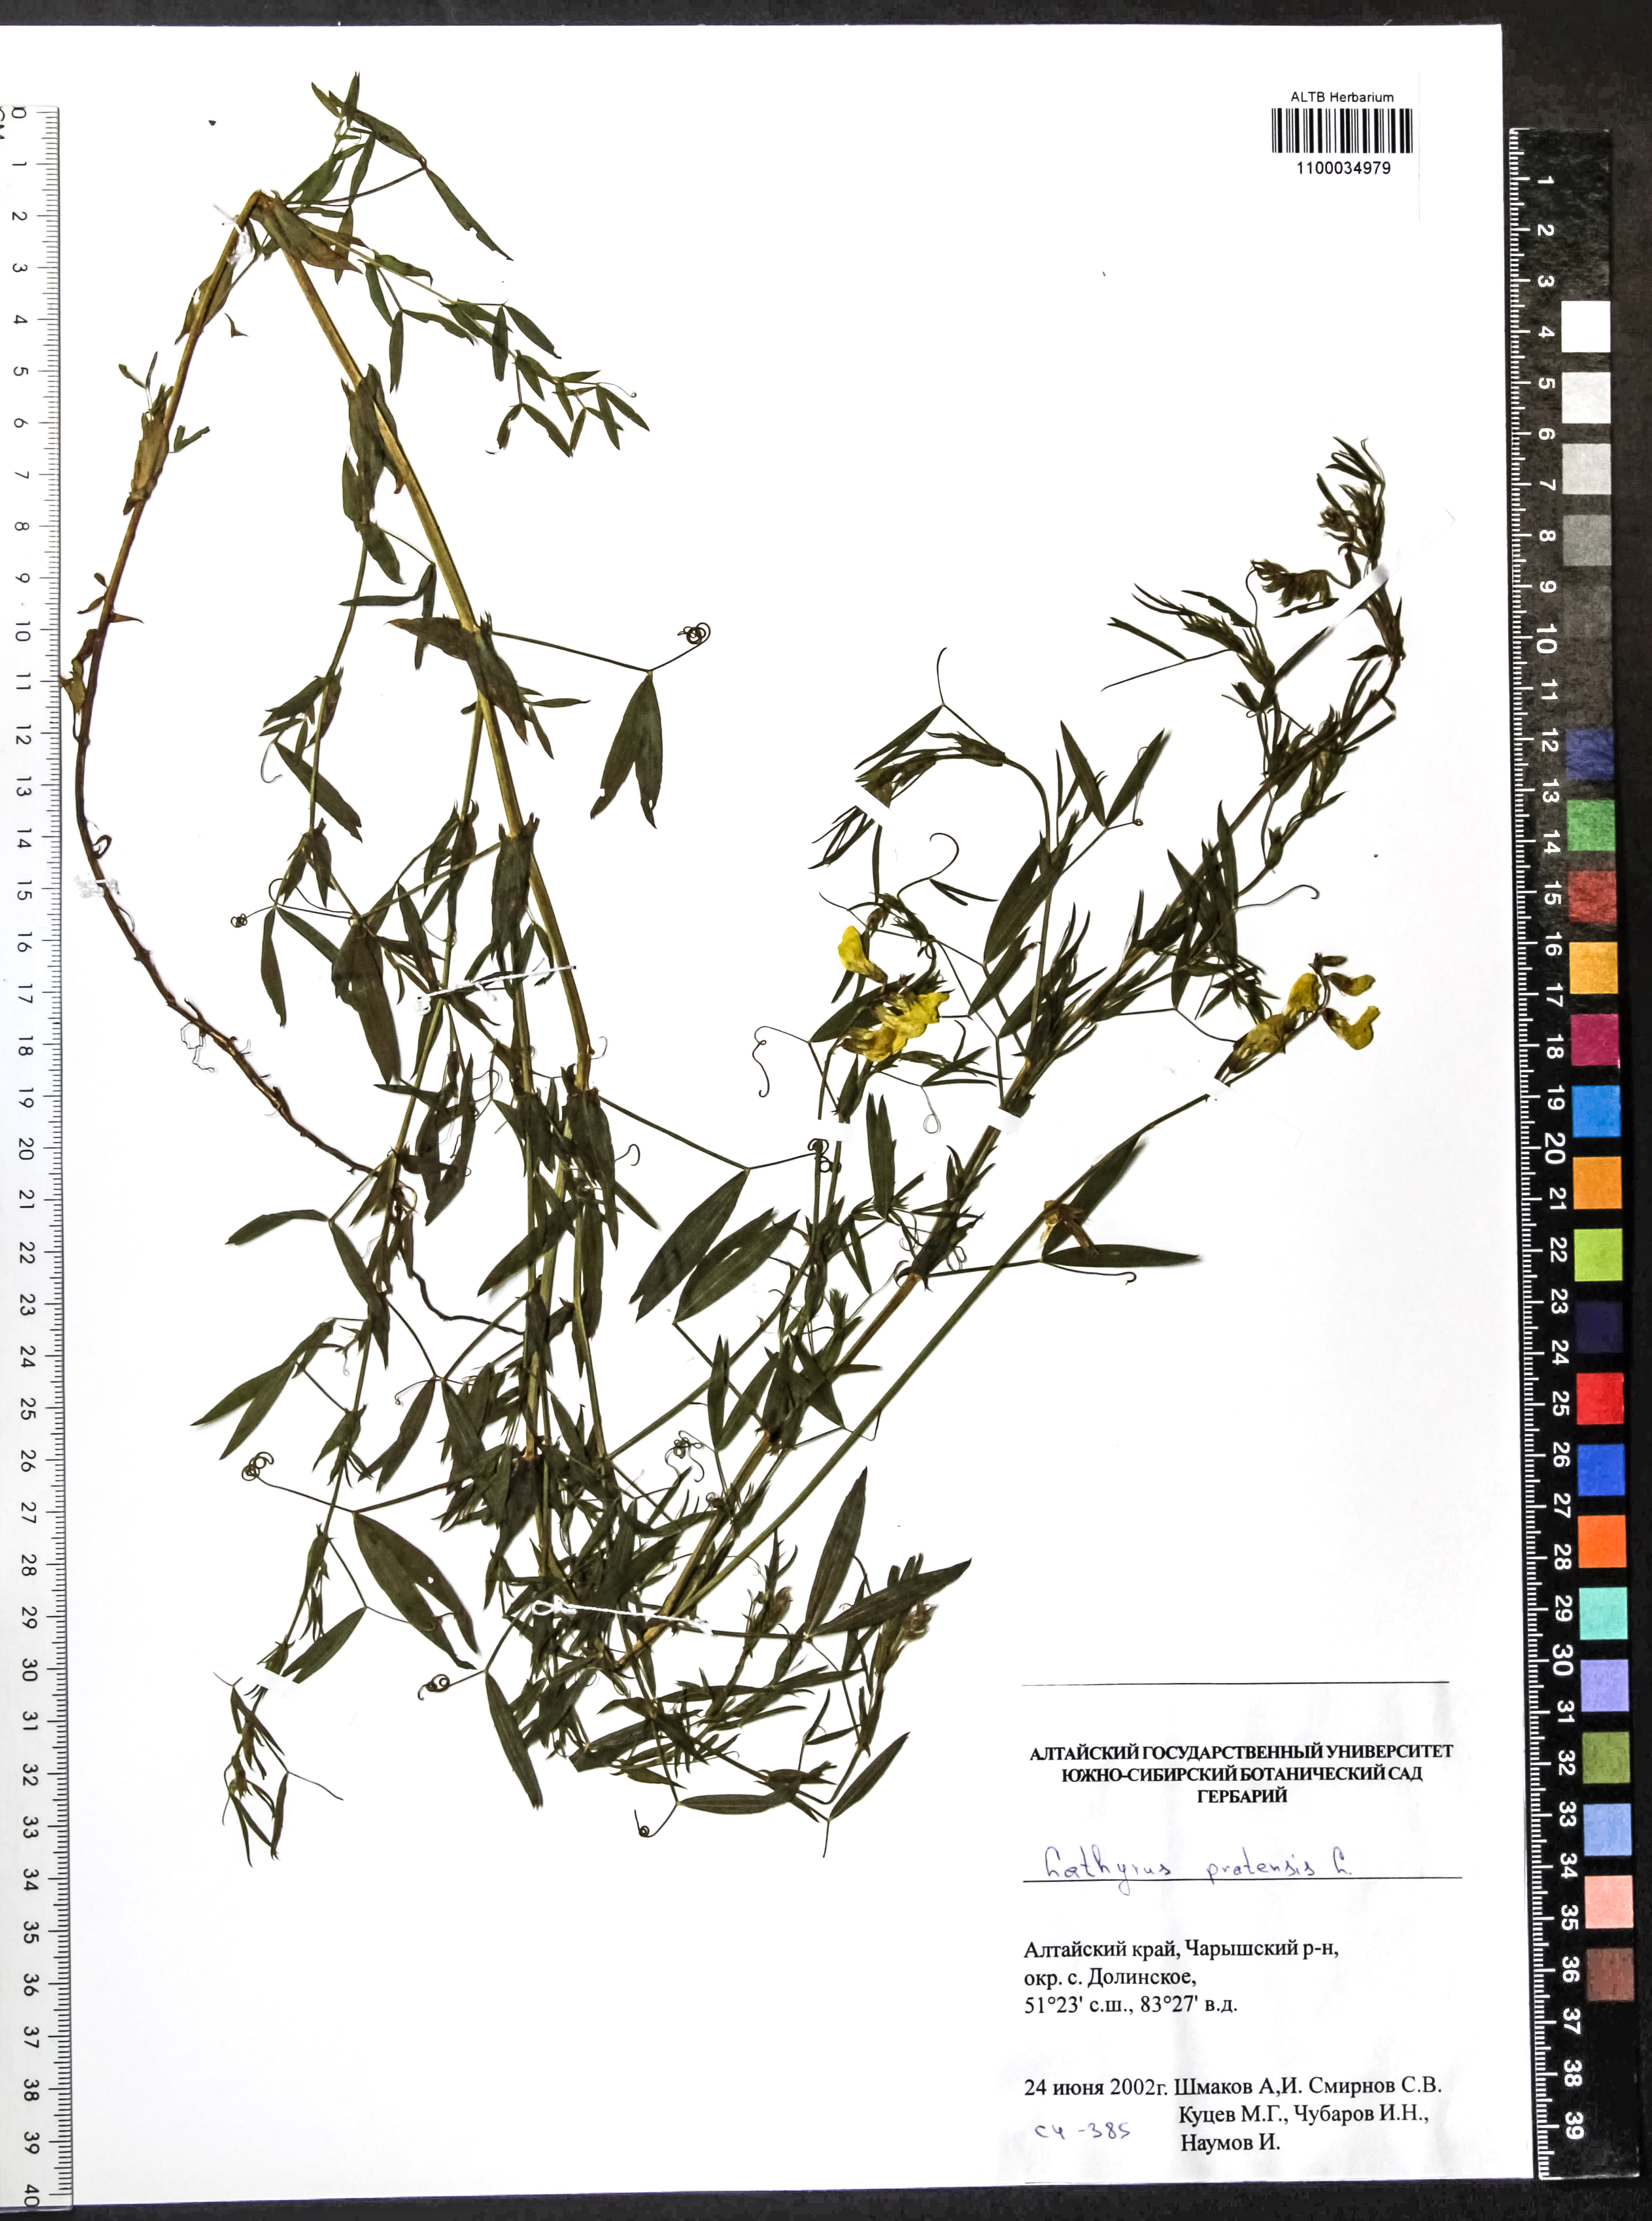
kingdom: Plantae
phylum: Tracheophyta
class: Magnoliopsida
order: Fabales
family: Fabaceae
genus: Lathyrus
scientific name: Lathyrus pratensis
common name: Meadow vetchling
